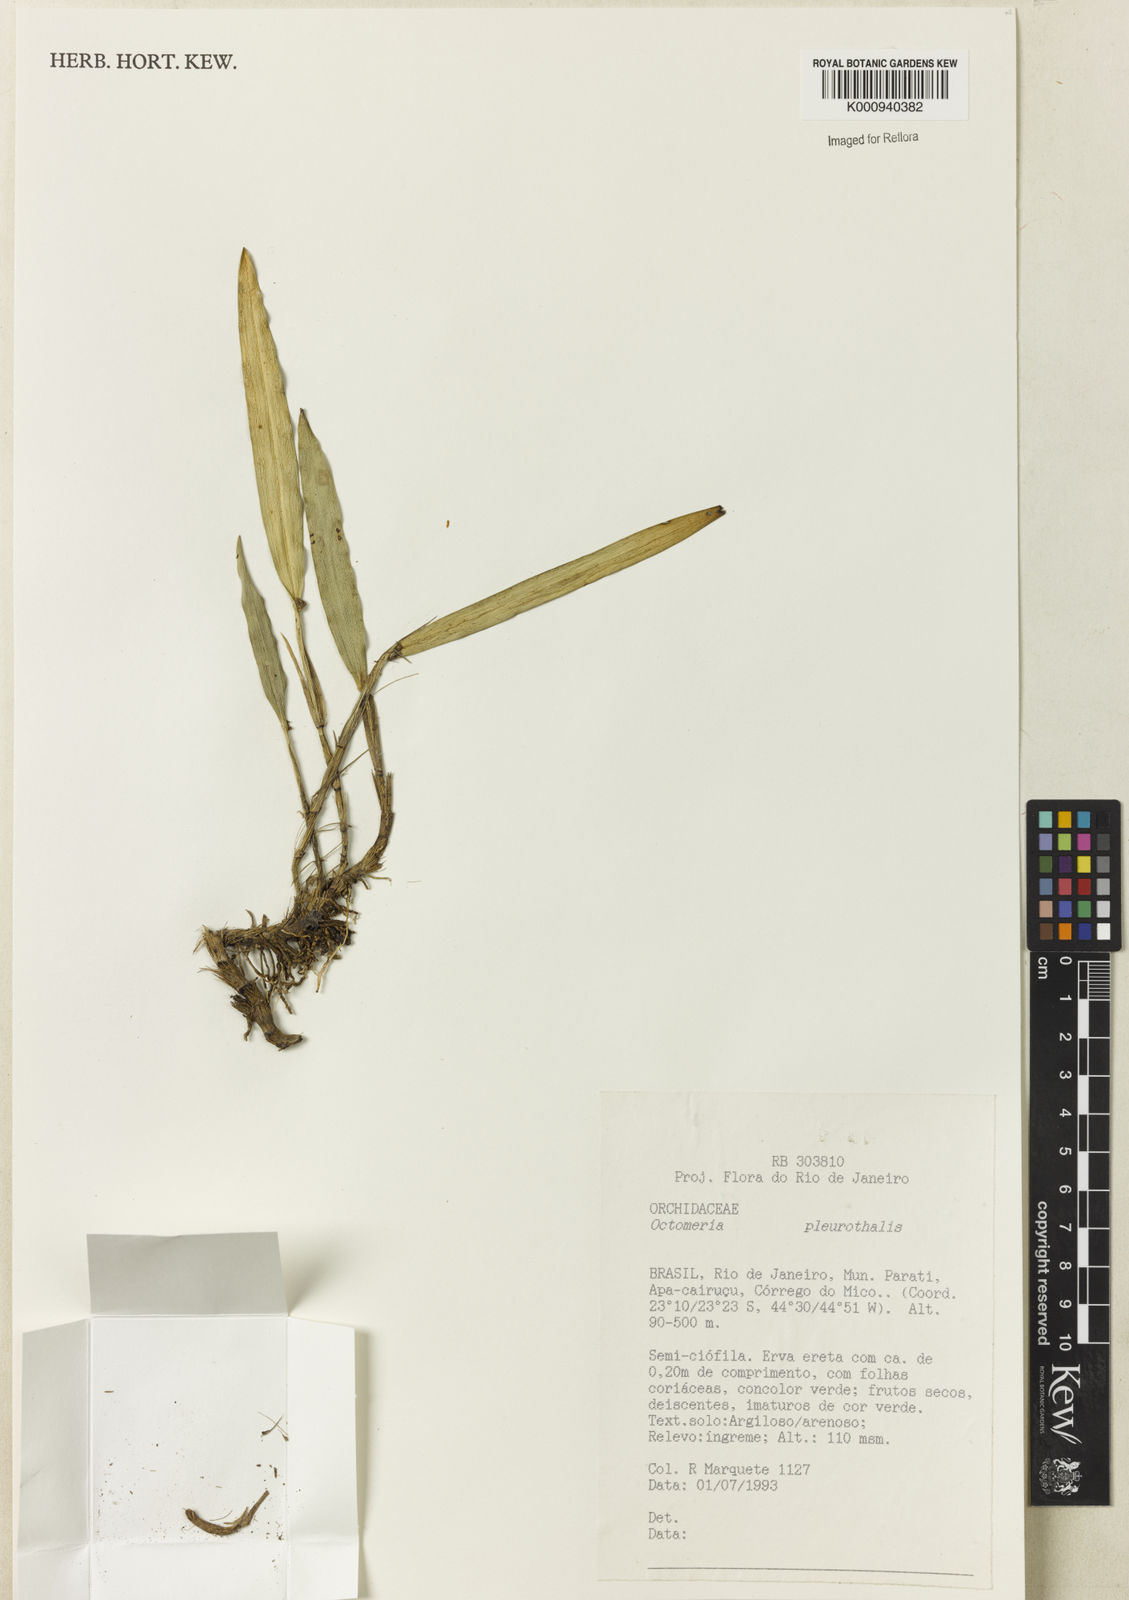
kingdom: Plantae
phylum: Tracheophyta
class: Liliopsida
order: Asparagales
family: Orchidaceae
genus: Octomeria
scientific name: Octomeria
